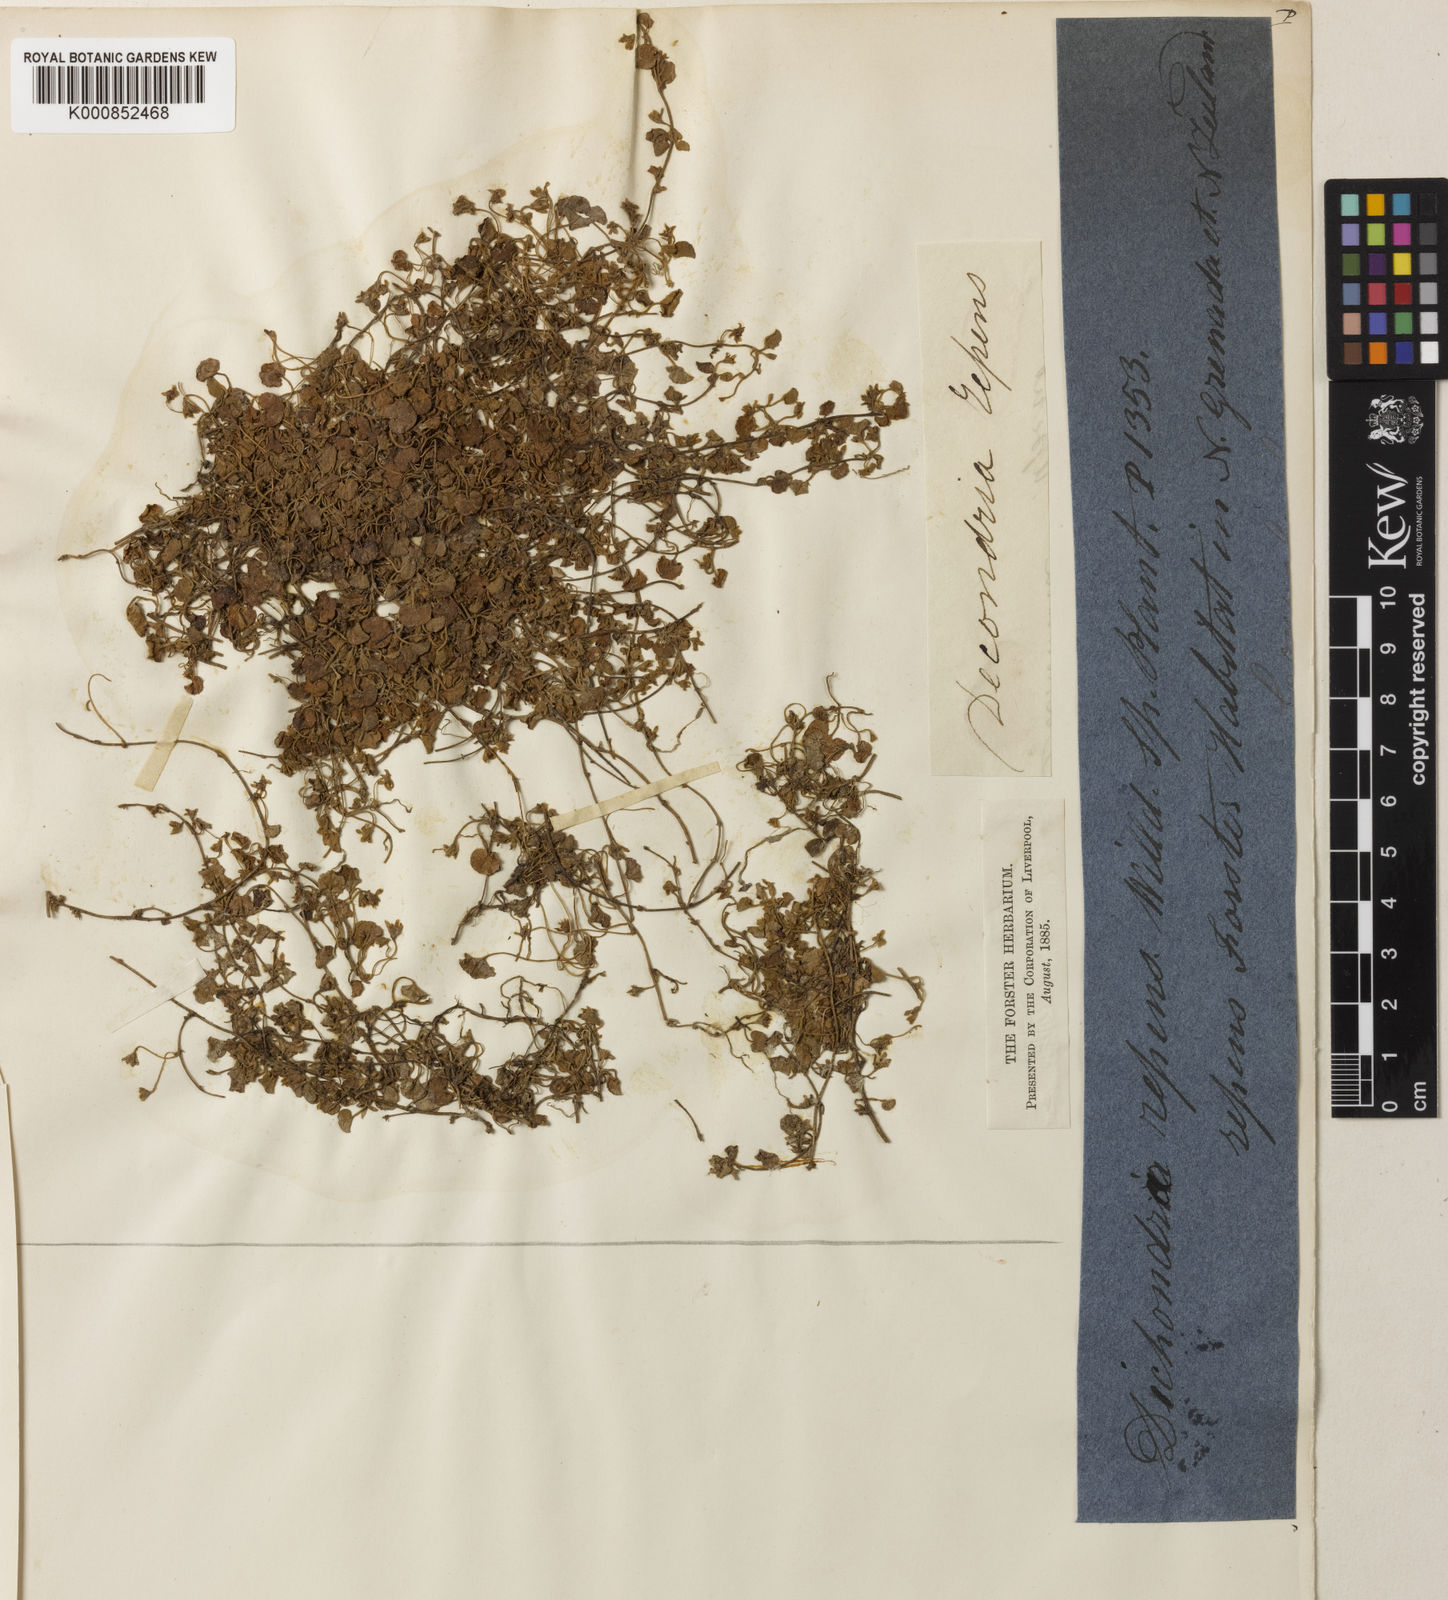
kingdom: Plantae
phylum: Tracheophyta
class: Magnoliopsida
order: Solanales
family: Convolvulaceae
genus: Dichondra
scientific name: Dichondra repens
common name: Kidneyweed
